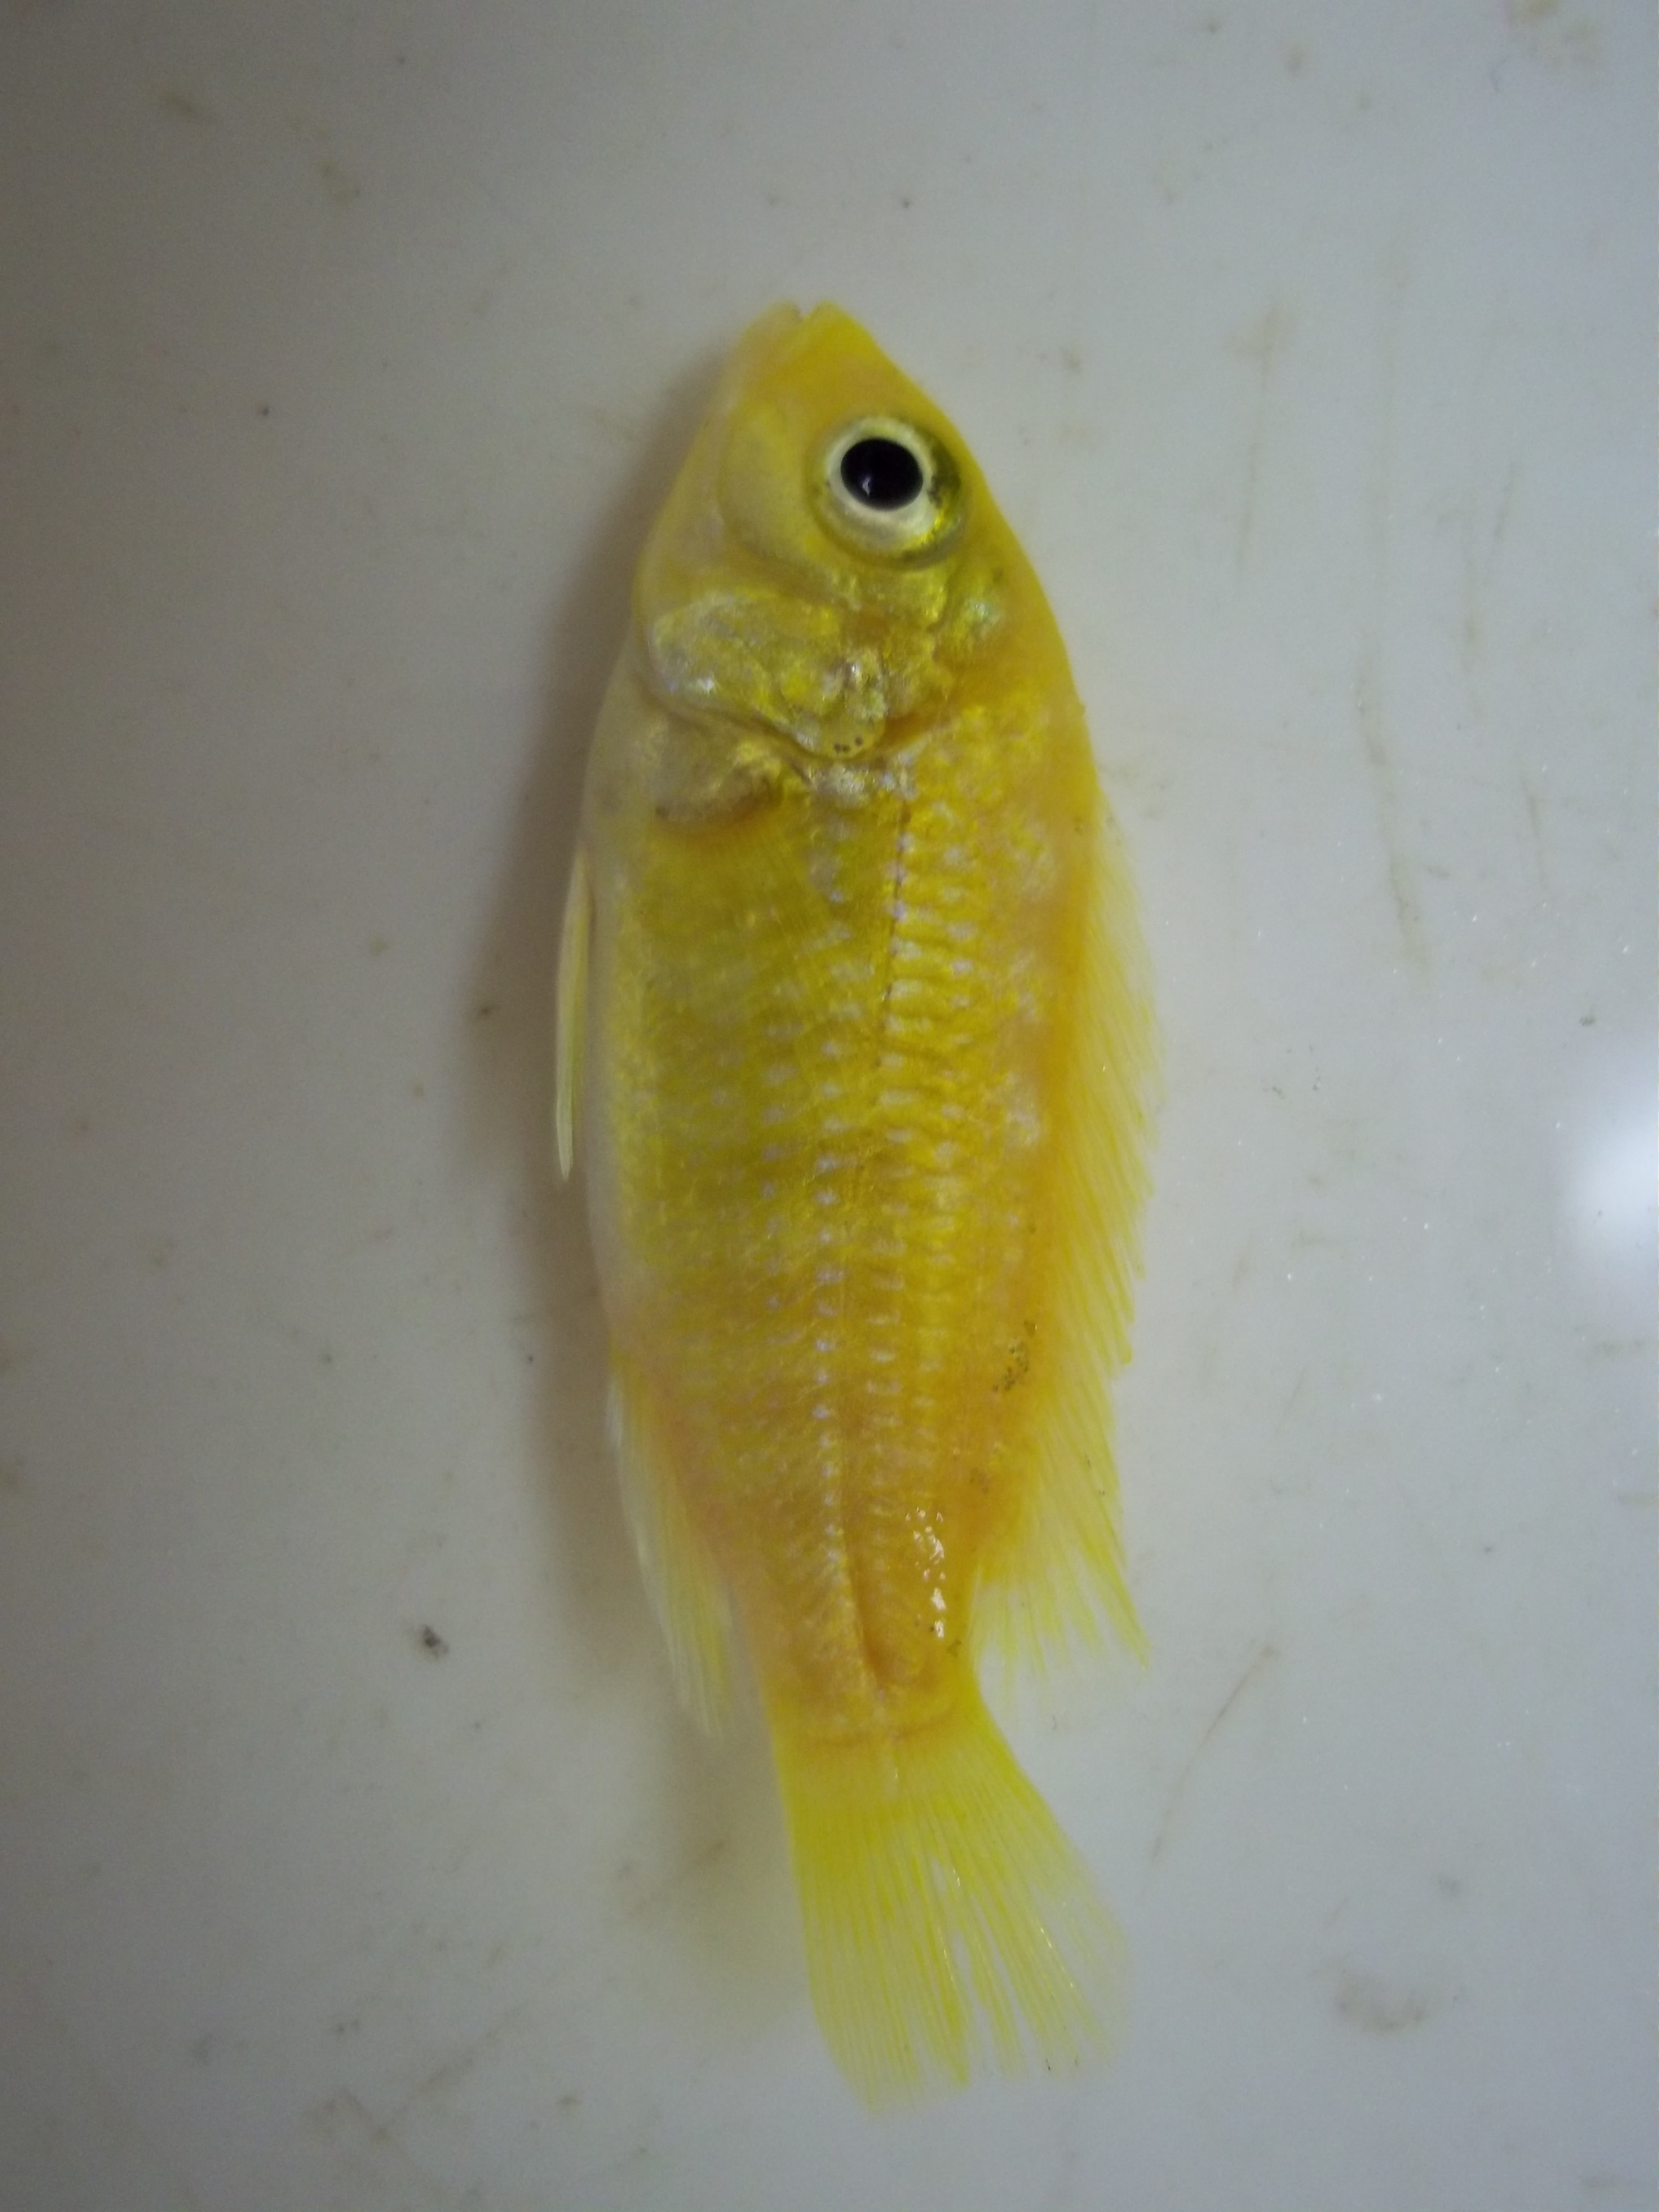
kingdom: Animalia
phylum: Chordata
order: Perciformes
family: Cichlidae
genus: Labidochromis
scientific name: Labidochromis caeruleus
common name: Blue streak hap
